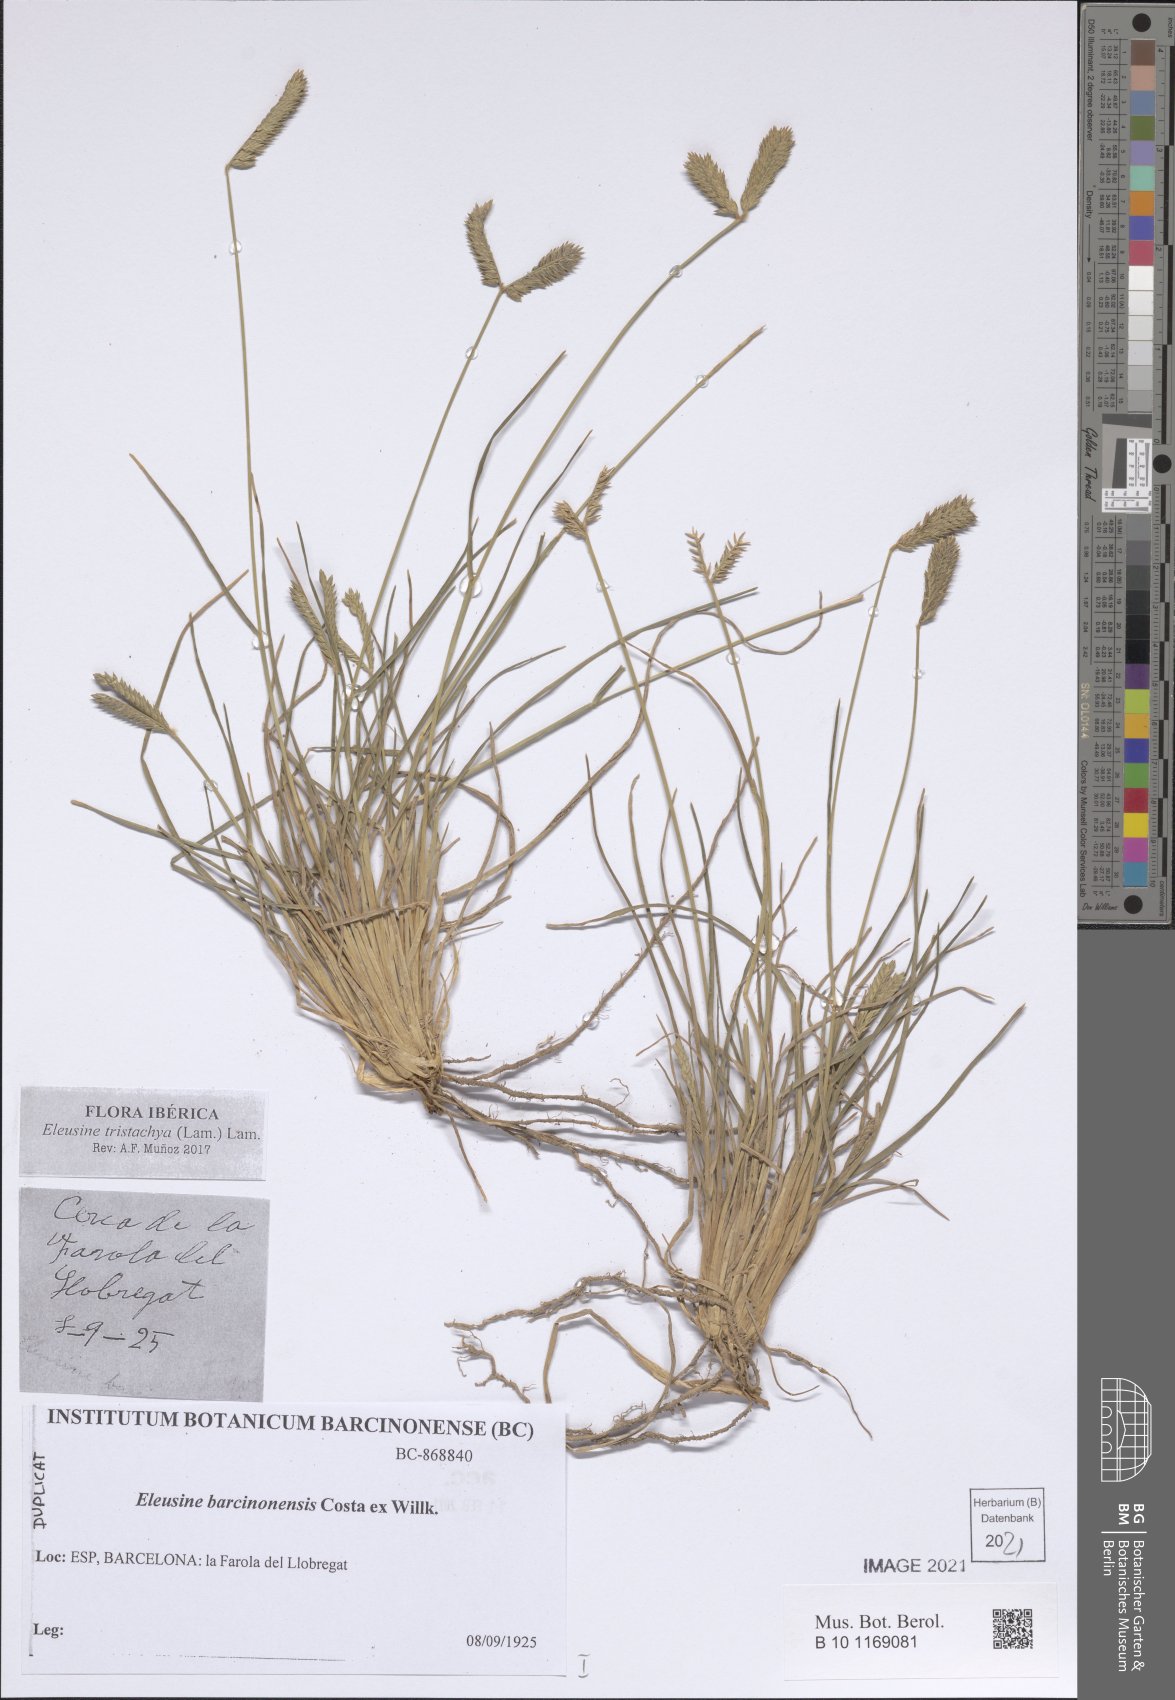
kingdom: Plantae
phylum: Tracheophyta
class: Liliopsida
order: Poales
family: Poaceae
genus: Eleusine
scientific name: Eleusine tristachya
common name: American yard-grass
